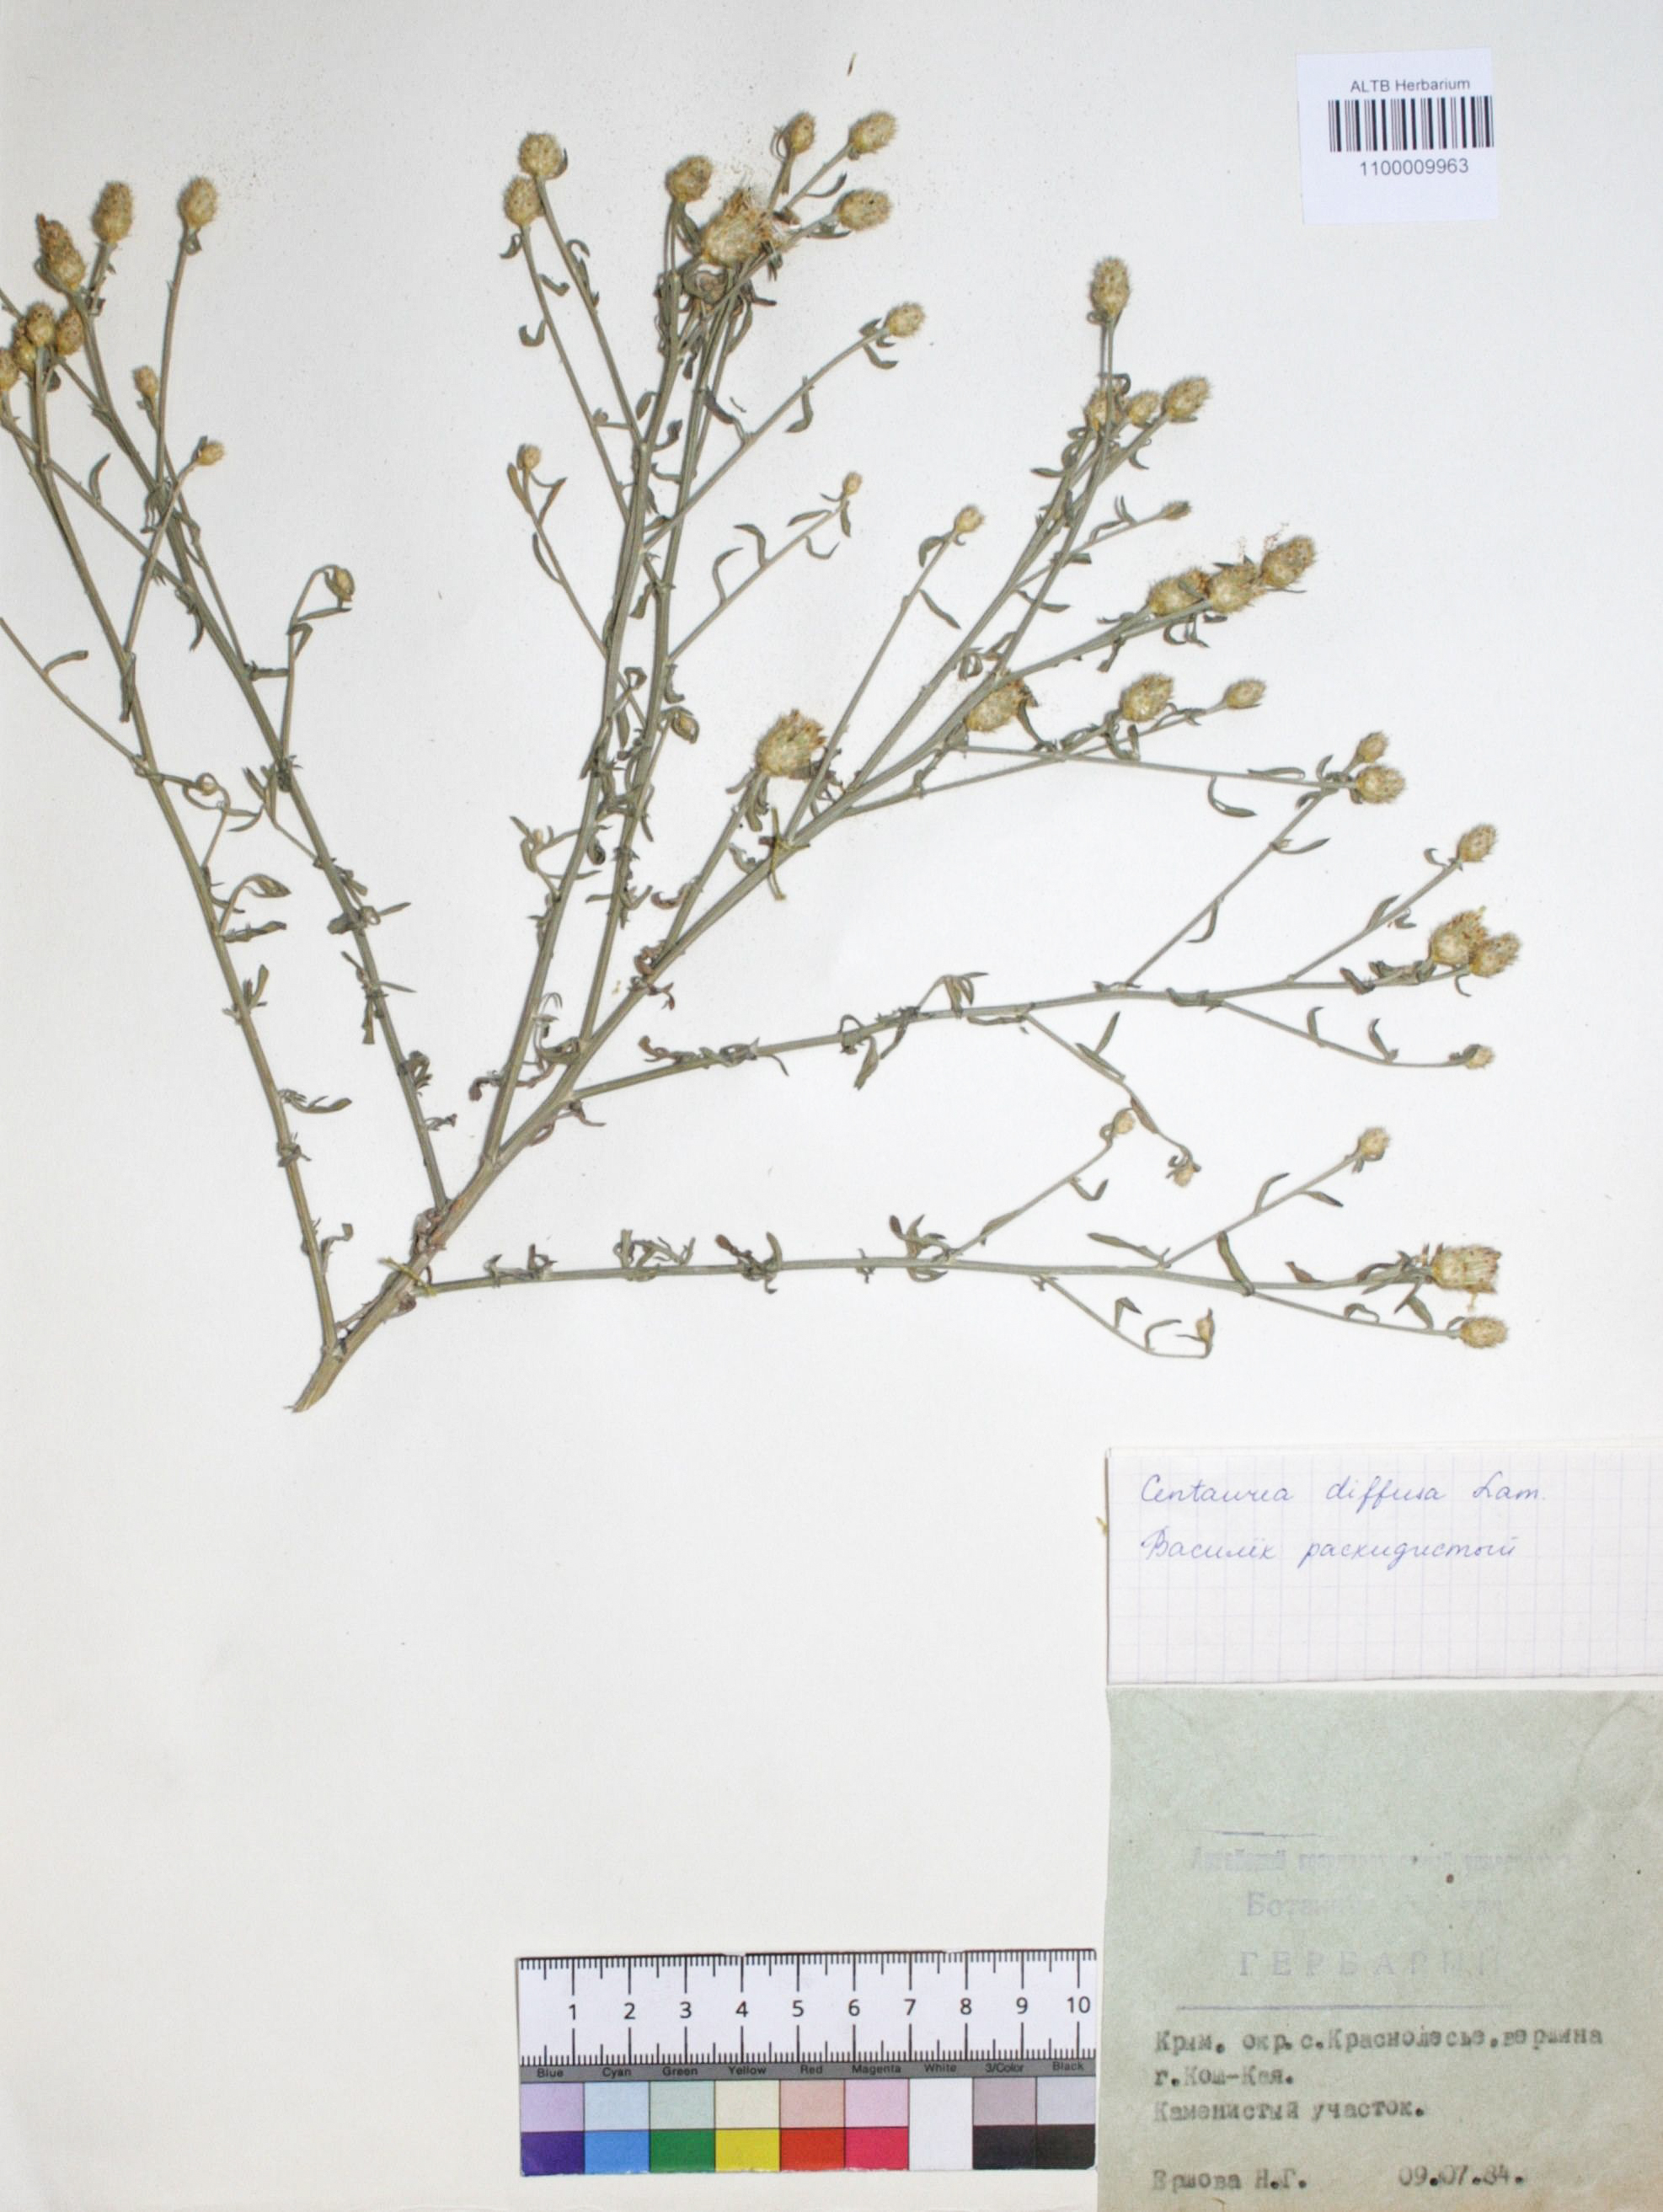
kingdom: Plantae
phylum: Tracheophyta
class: Magnoliopsida
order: Asterales
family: Asteraceae
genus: Centaurea
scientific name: Centaurea diffusa
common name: Diffuse knapweed
